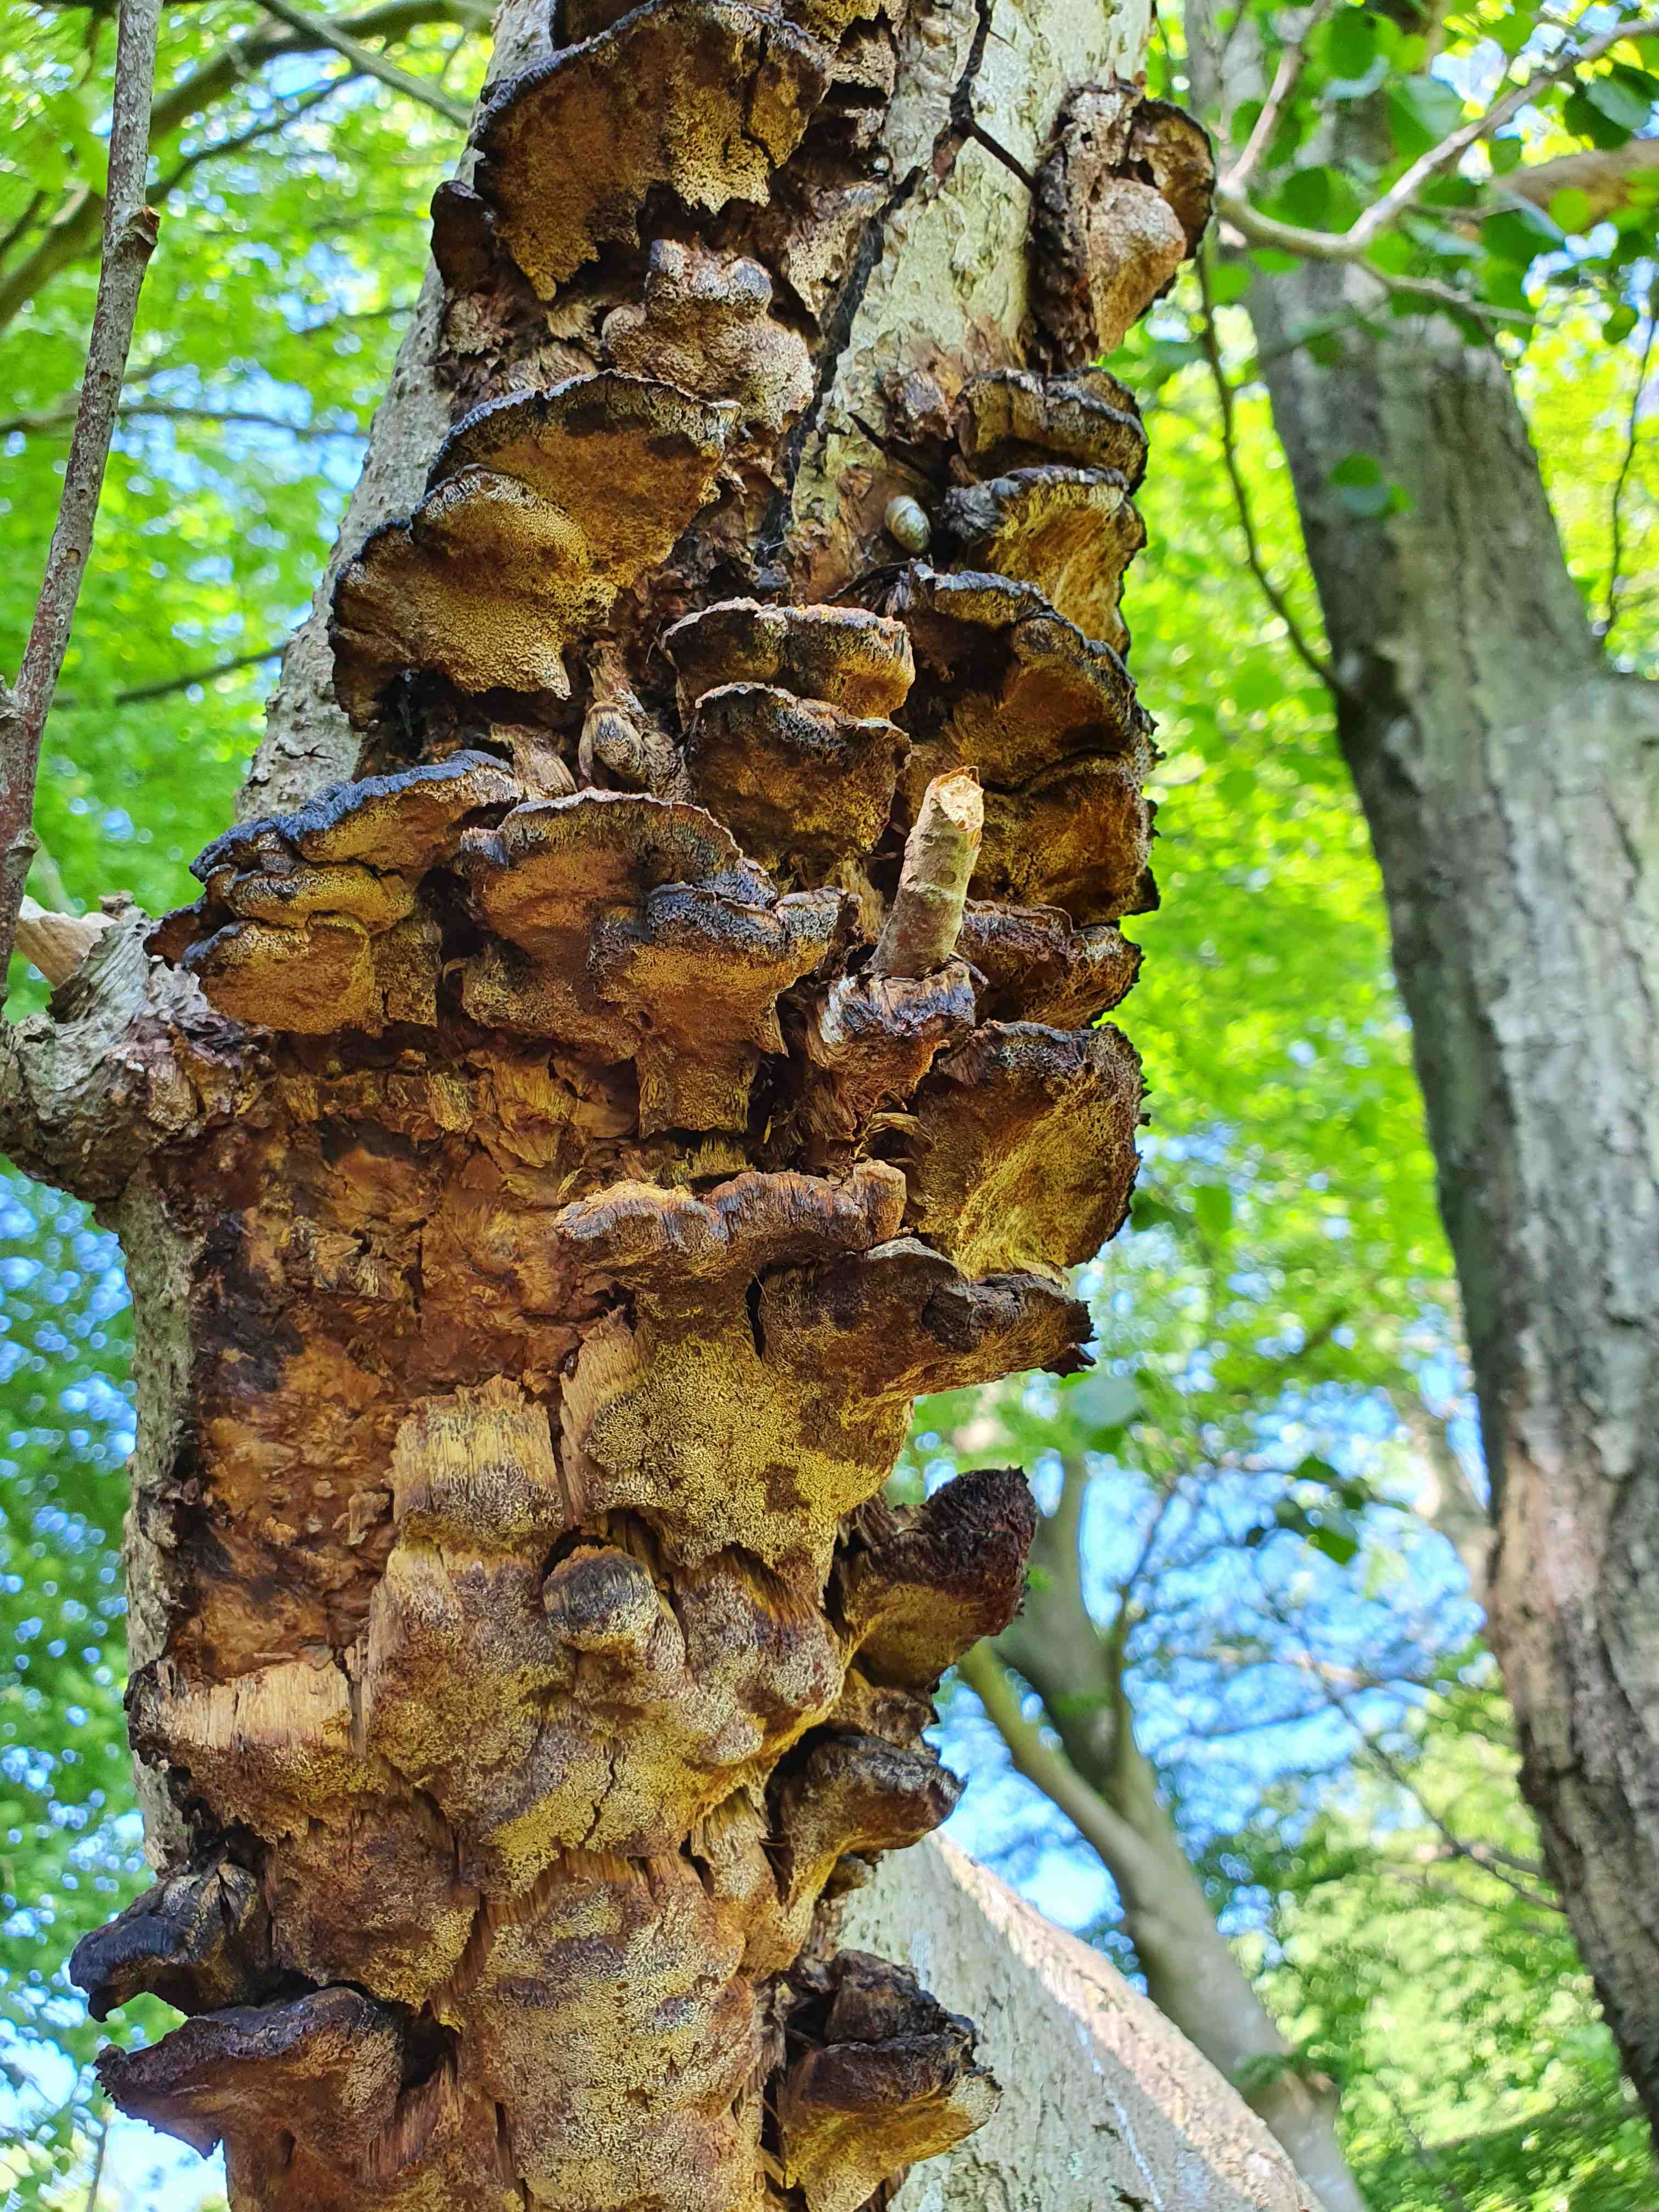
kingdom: Fungi
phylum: Basidiomycota
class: Agaricomycetes
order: Hymenochaetales
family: Hymenochaetaceae
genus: Xanthoporia
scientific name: Xanthoporia radiata
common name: elle-spejlporesvamp
